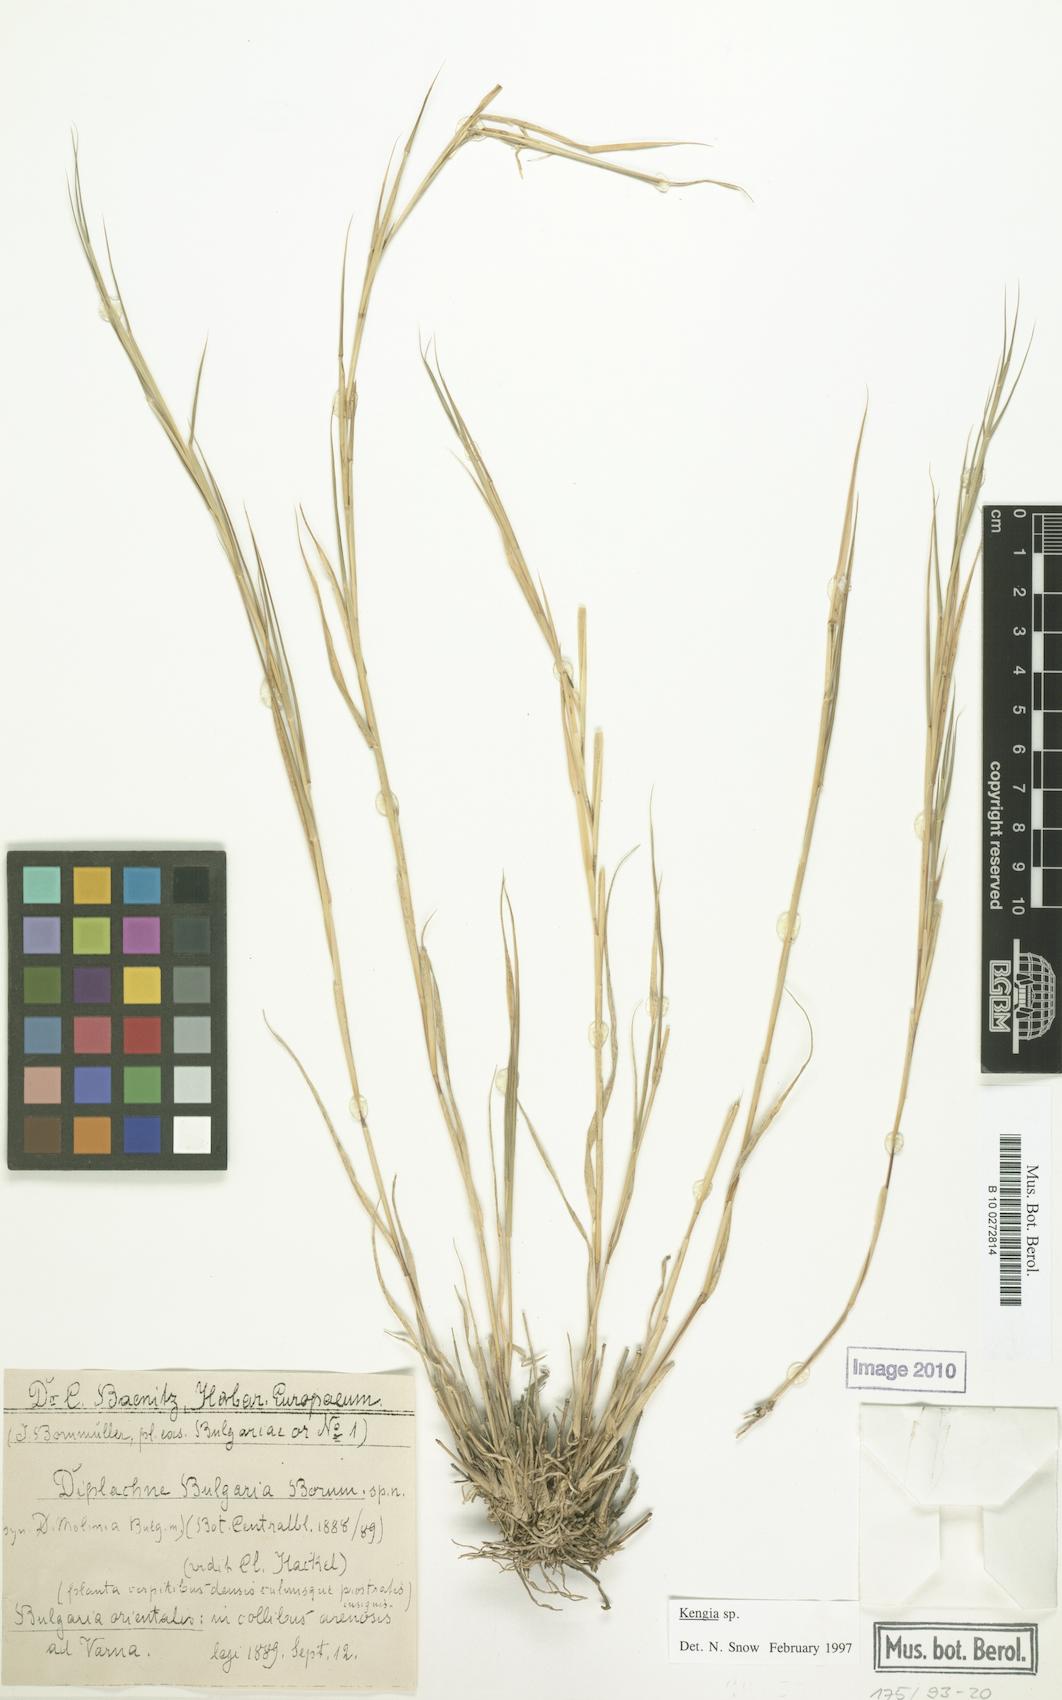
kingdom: Plantae
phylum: Tracheophyta
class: Liliopsida
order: Poales
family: Poaceae
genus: Cleistogenes
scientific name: Cleistogenes serotina
